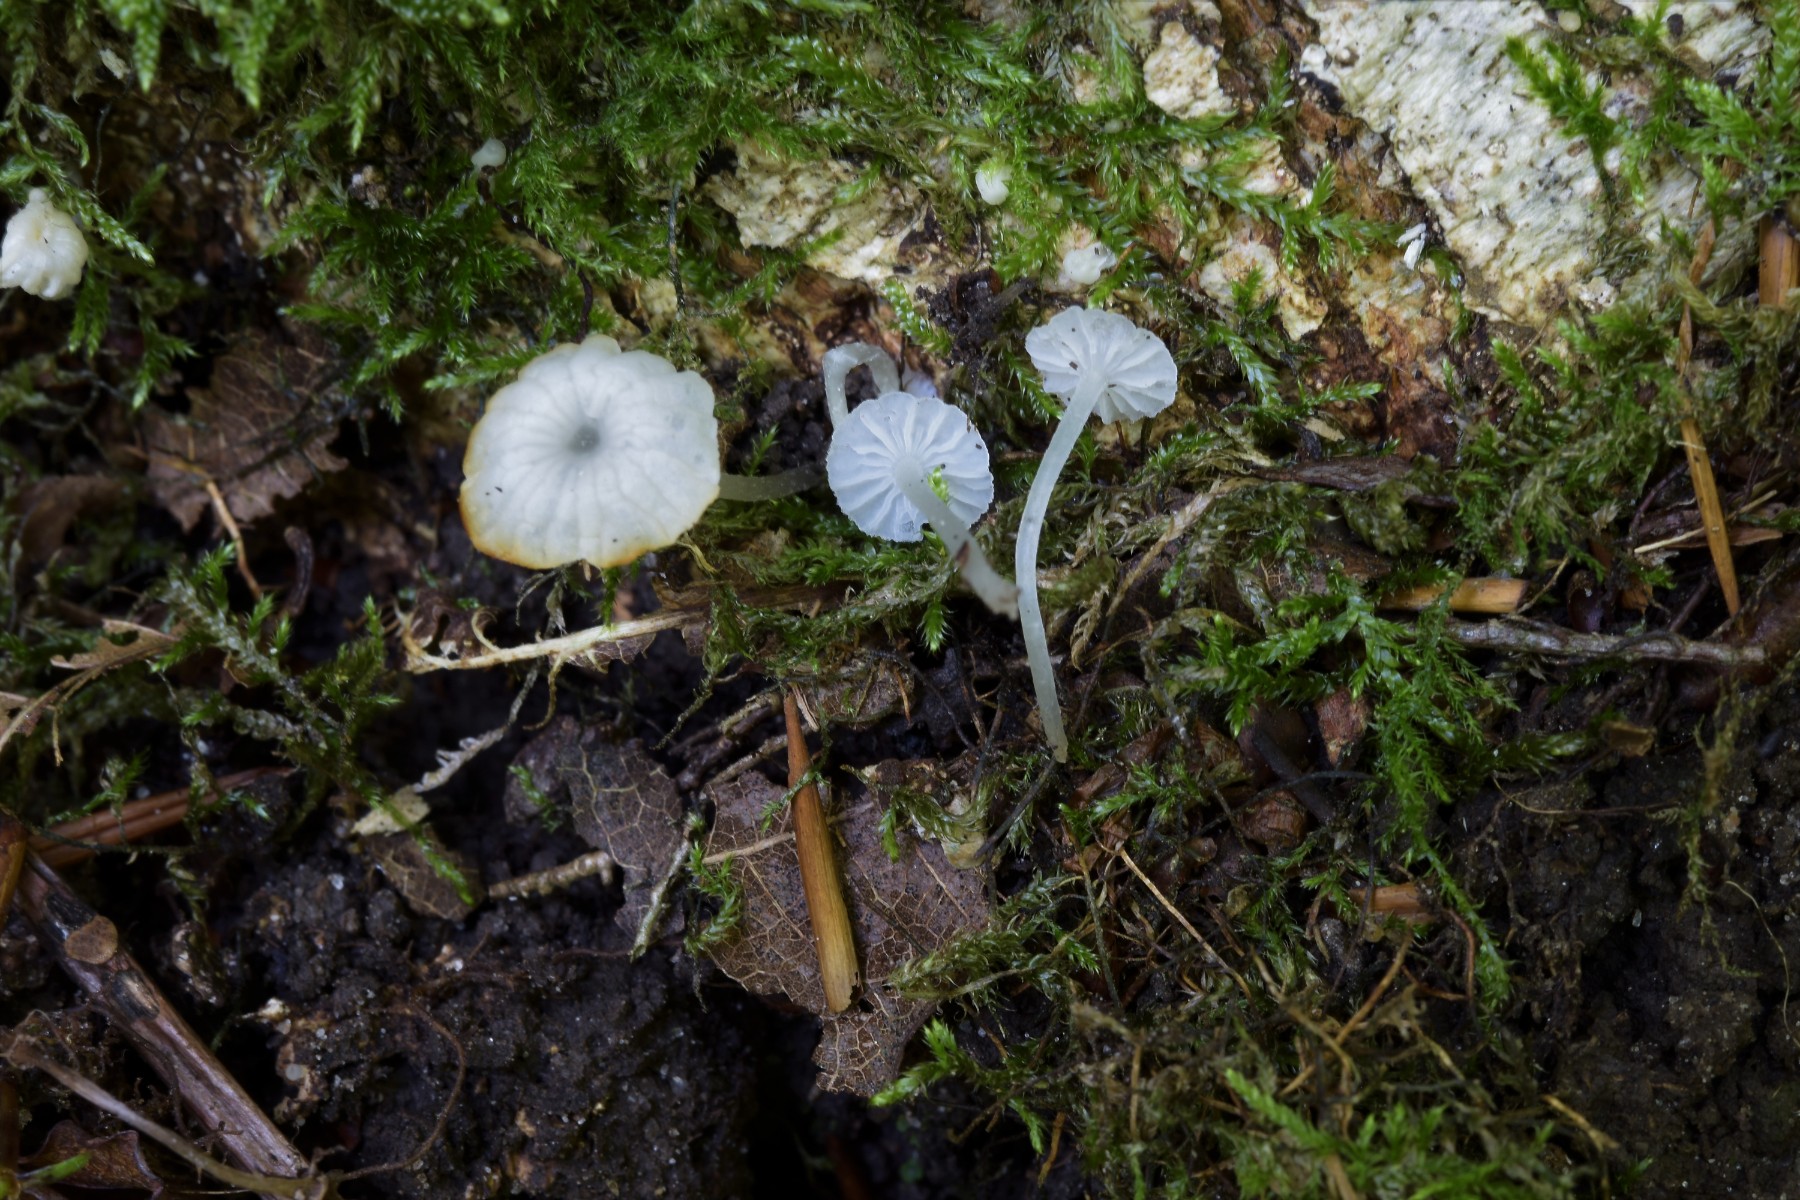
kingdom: Fungi
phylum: Basidiomycota
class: Agaricomycetes
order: Agaricales
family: Tricholomataceae
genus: Delicatula
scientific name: Delicatula integrella
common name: slørhuesvamp
